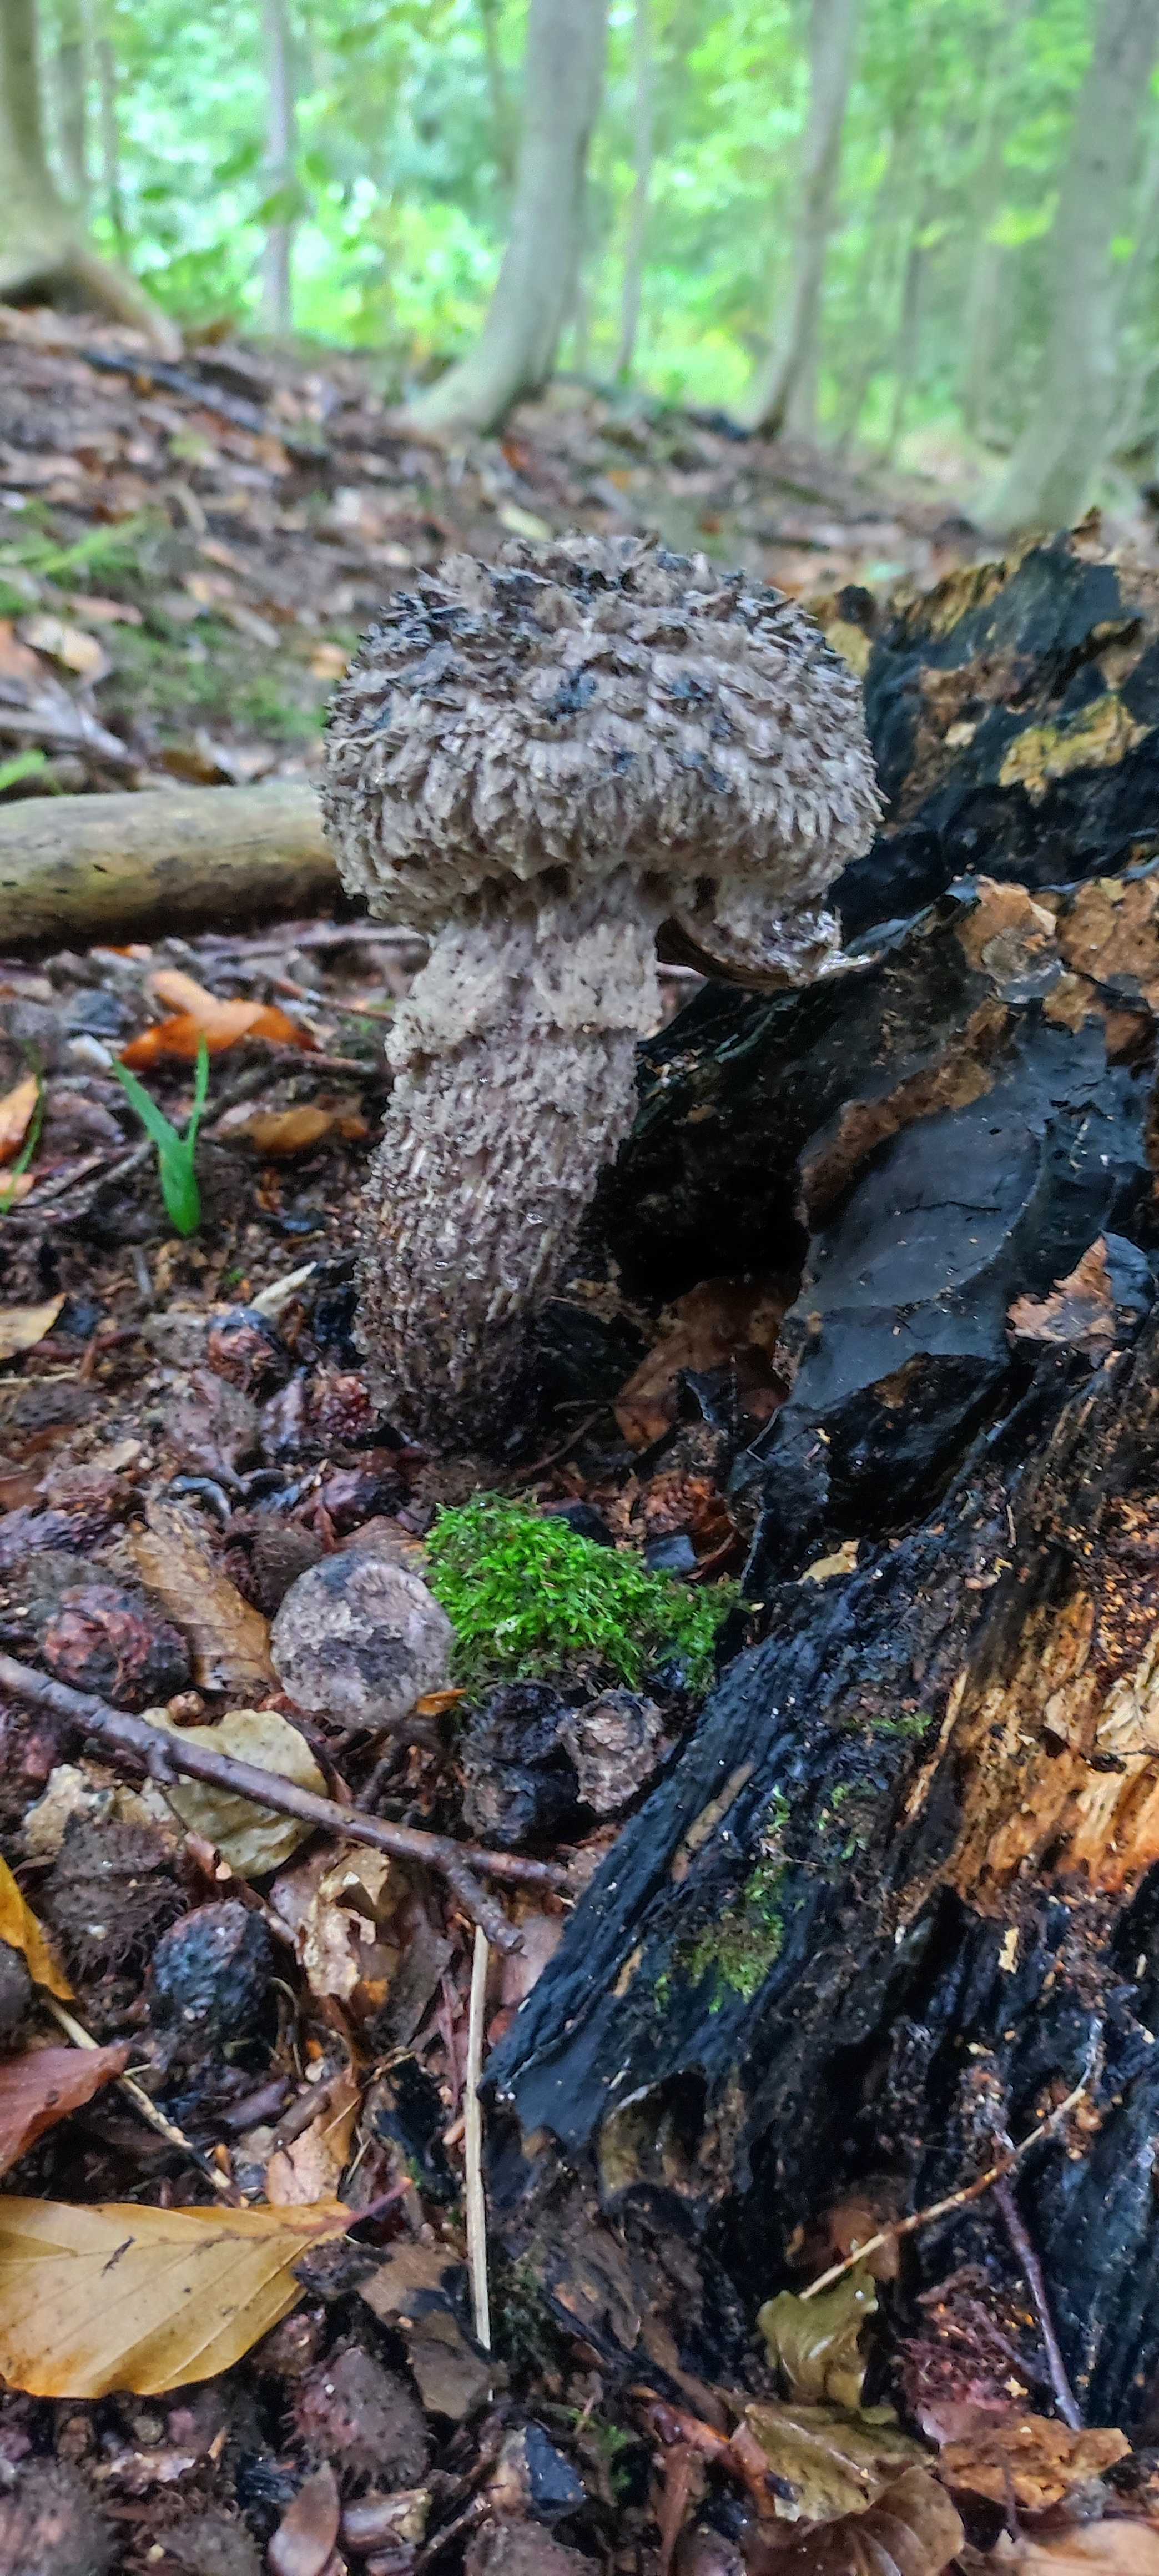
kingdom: Fungi
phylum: Basidiomycota
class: Agaricomycetes
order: Boletales
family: Boletaceae
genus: Strobilomyces
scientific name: Strobilomyces strobilaceus
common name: koglerørhat
